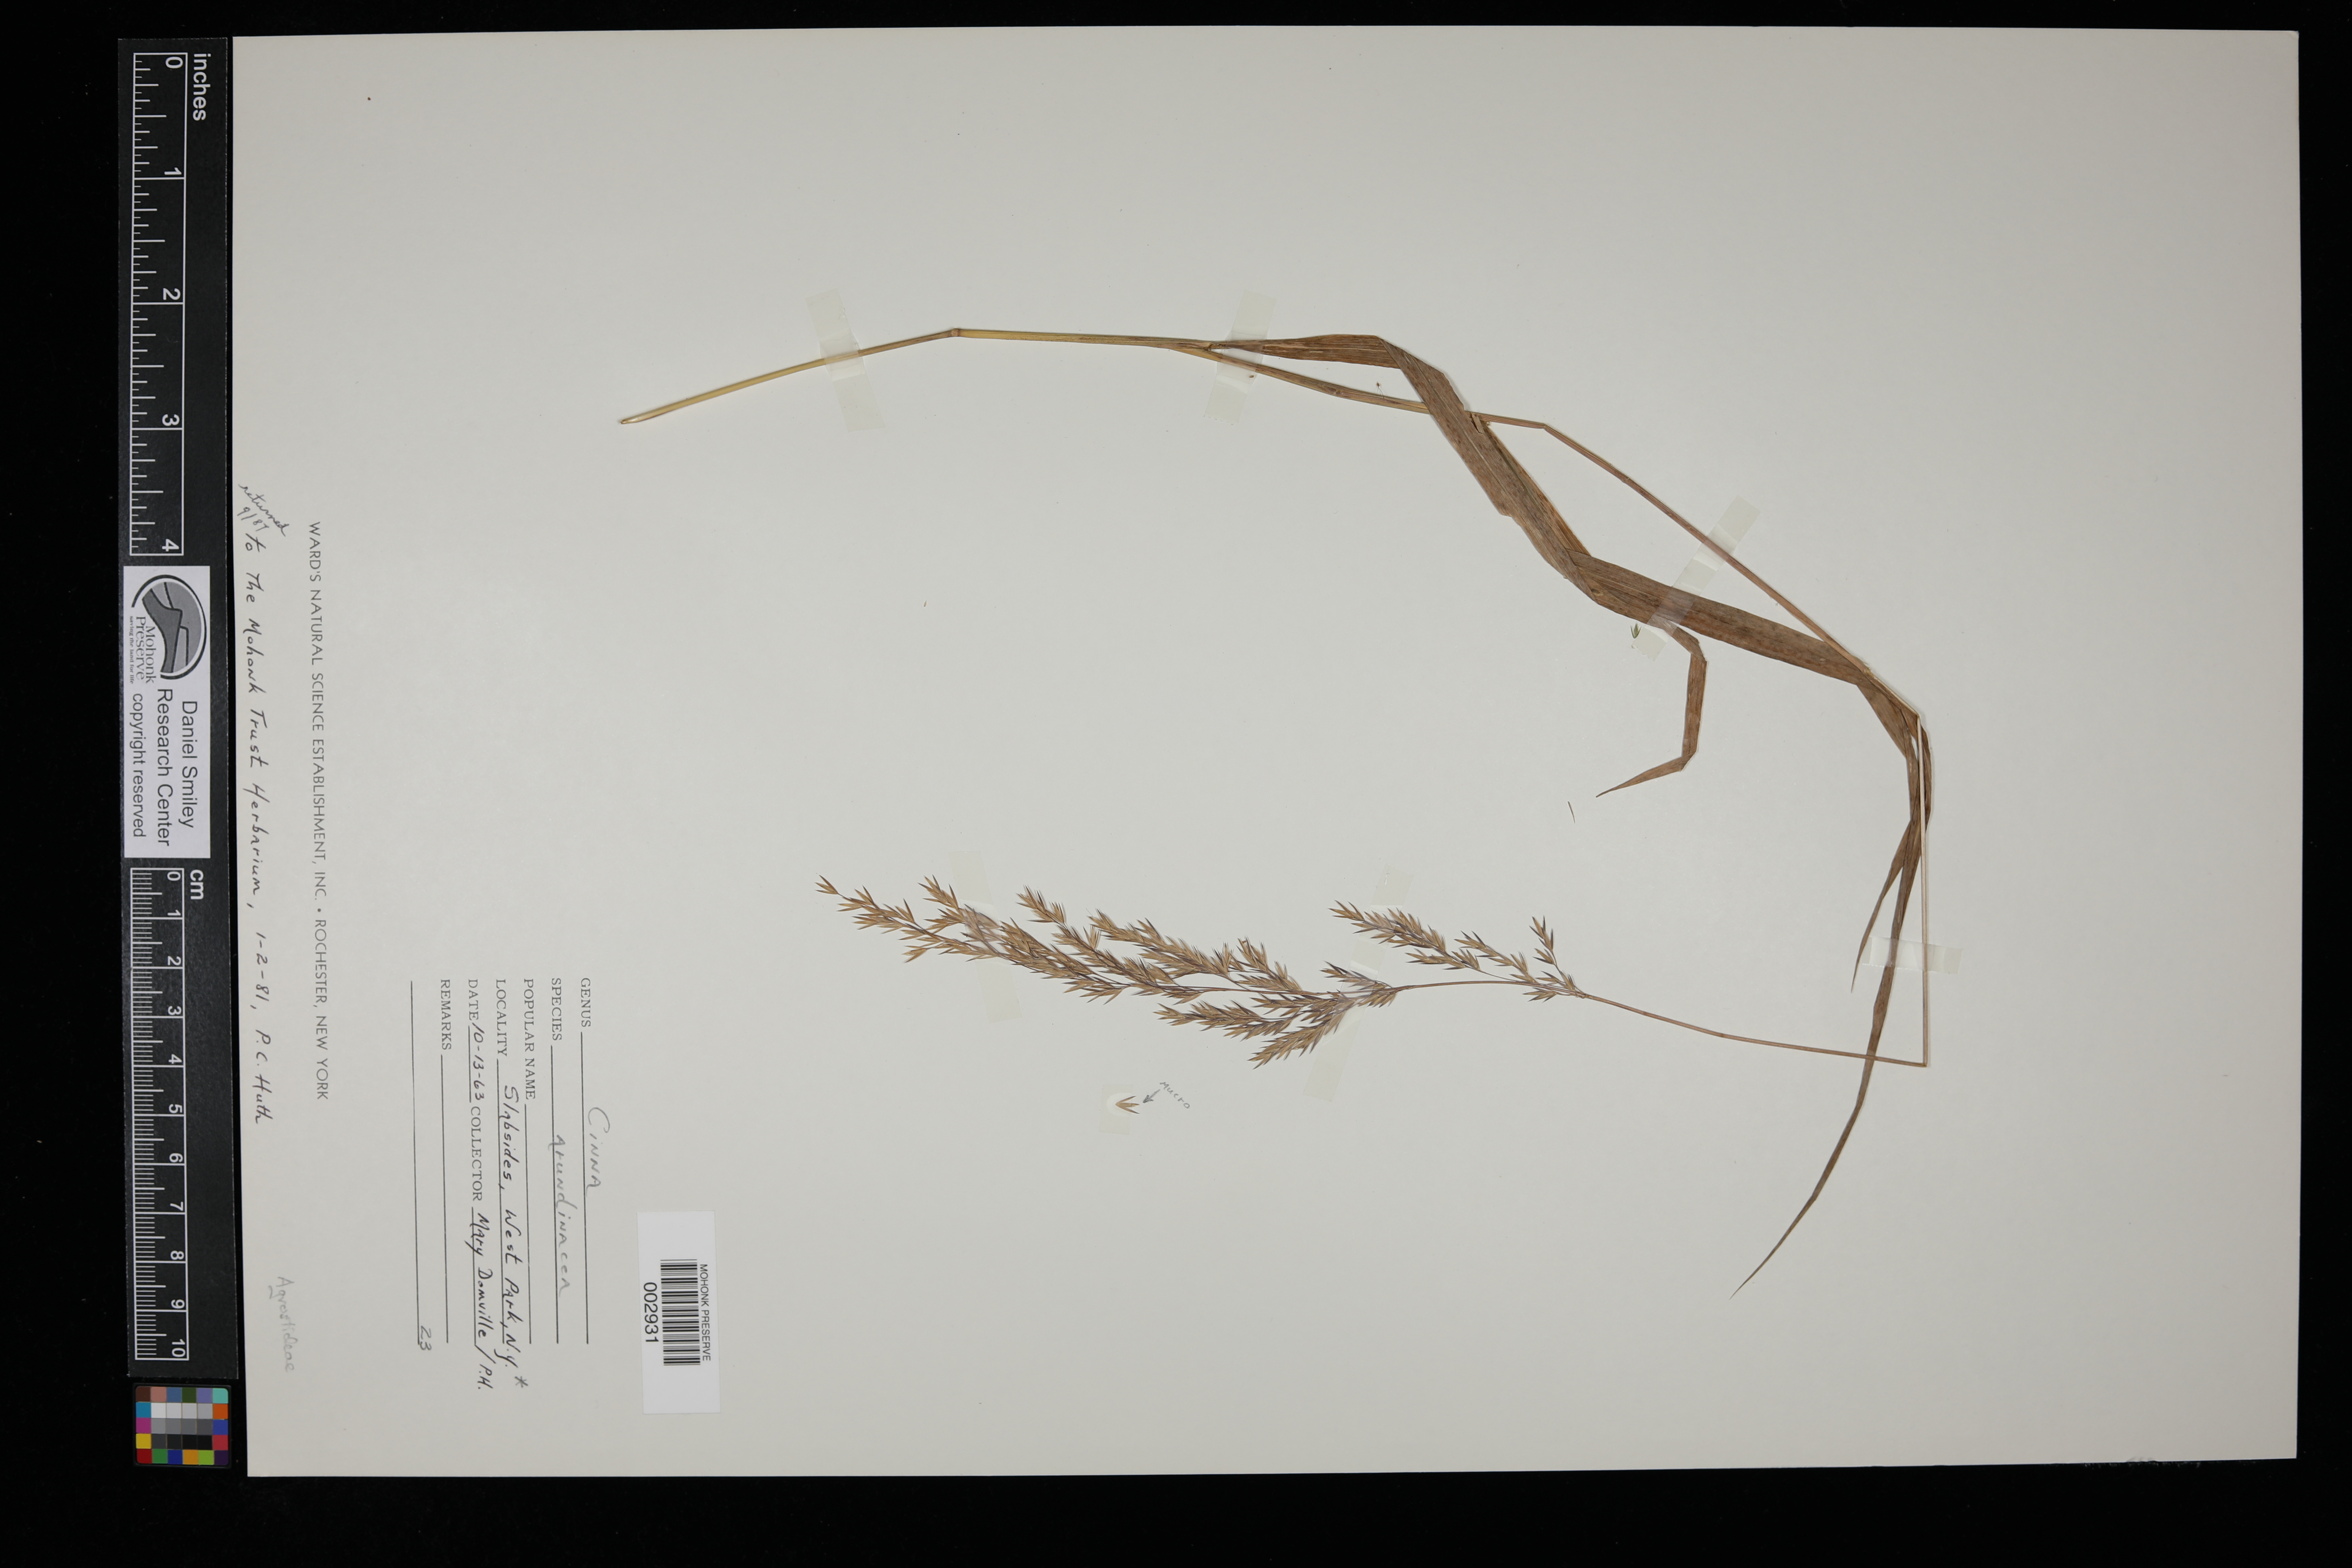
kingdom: Plantae
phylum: Tracheophyta
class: Liliopsida
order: Poales
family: Poaceae
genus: Cinna
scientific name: Cinna arundinacea
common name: Stout woodreed
